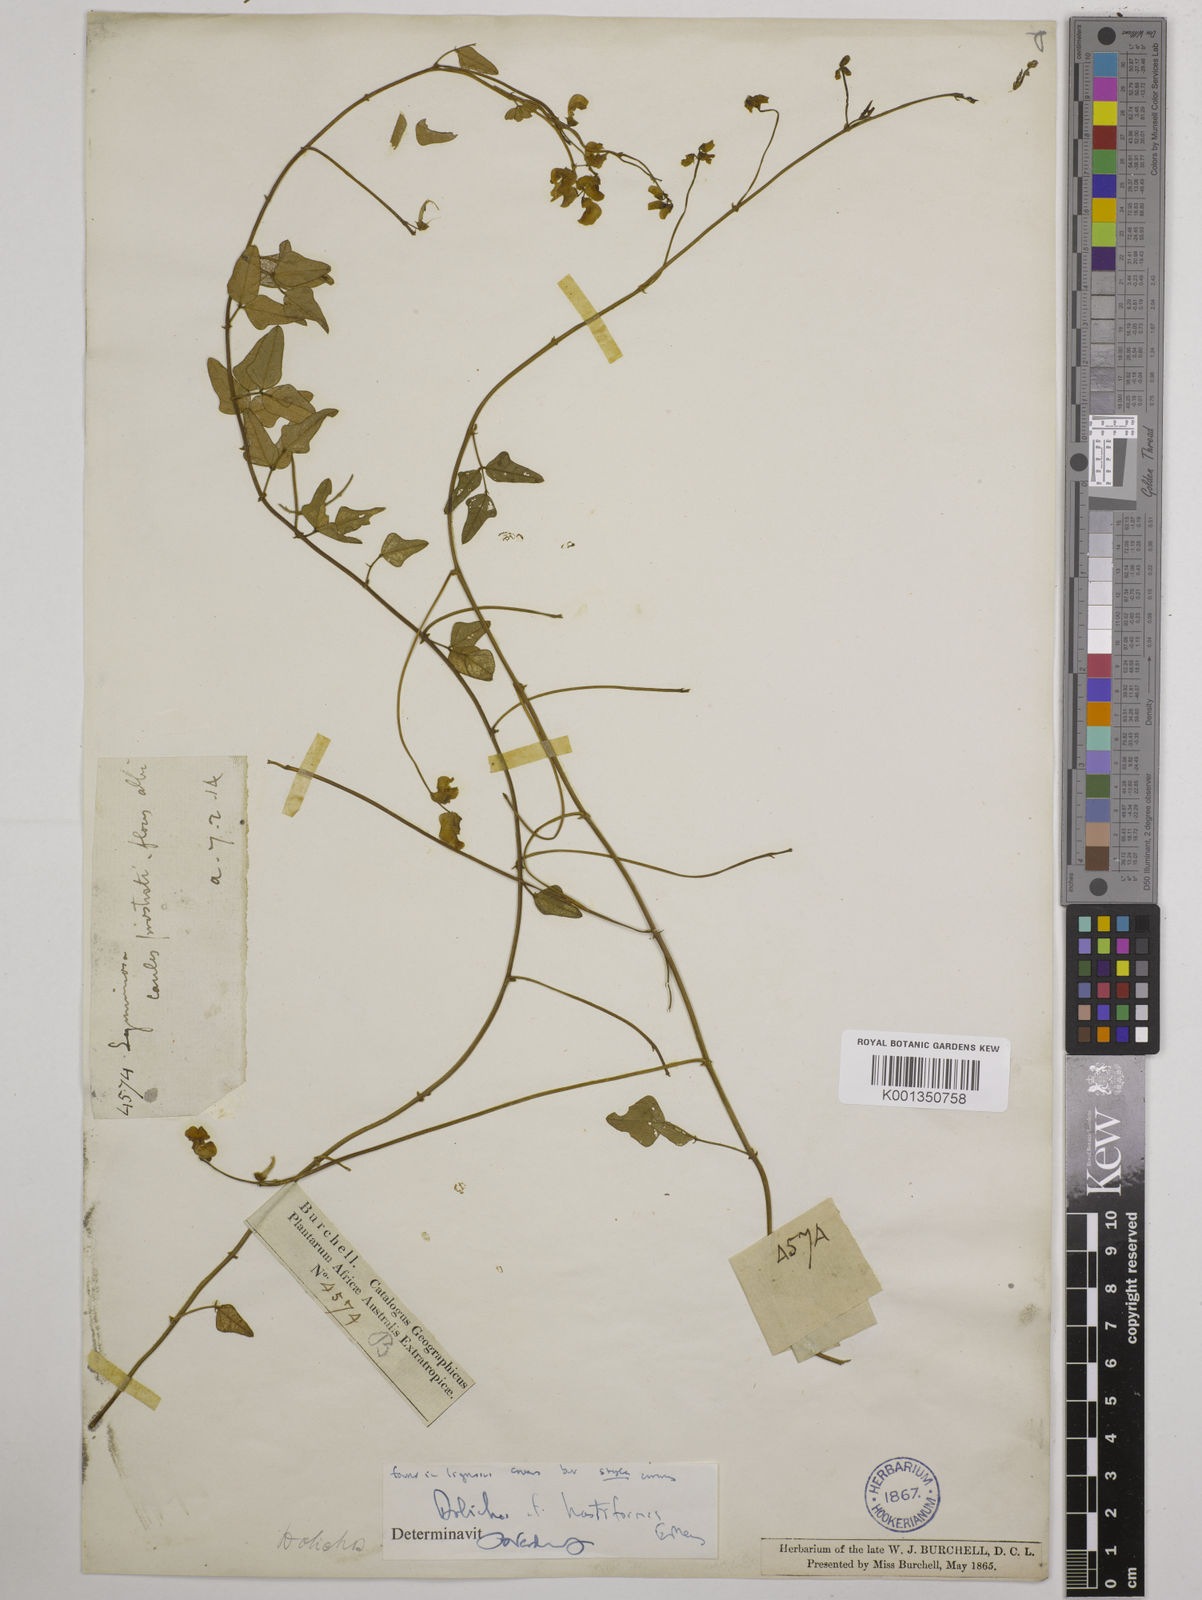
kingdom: Plantae
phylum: Tracheophyta
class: Magnoliopsida
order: Fabales
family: Fabaceae
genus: Dolichos
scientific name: Dolichos
